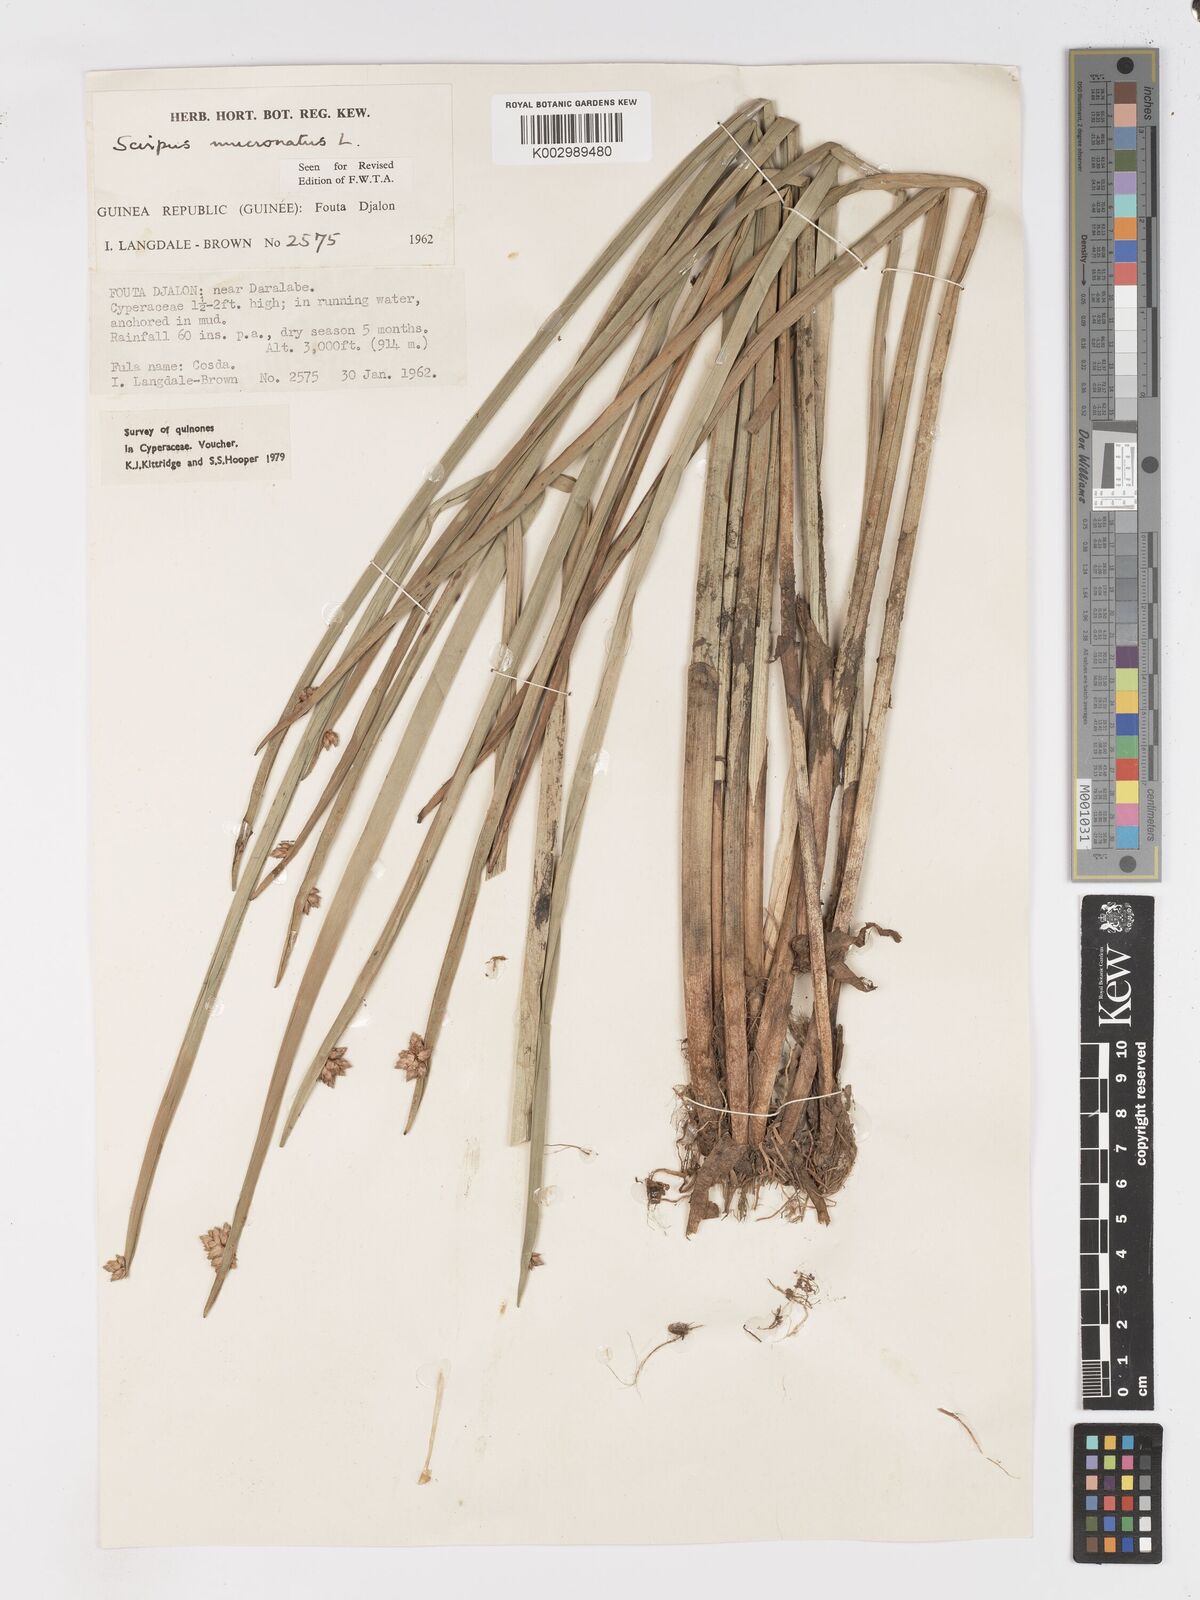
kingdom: Plantae
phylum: Tracheophyta
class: Liliopsida
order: Poales
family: Cyperaceae
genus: Schoenoplectiella
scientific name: Schoenoplectiella mucronata
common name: Bog bulrush
